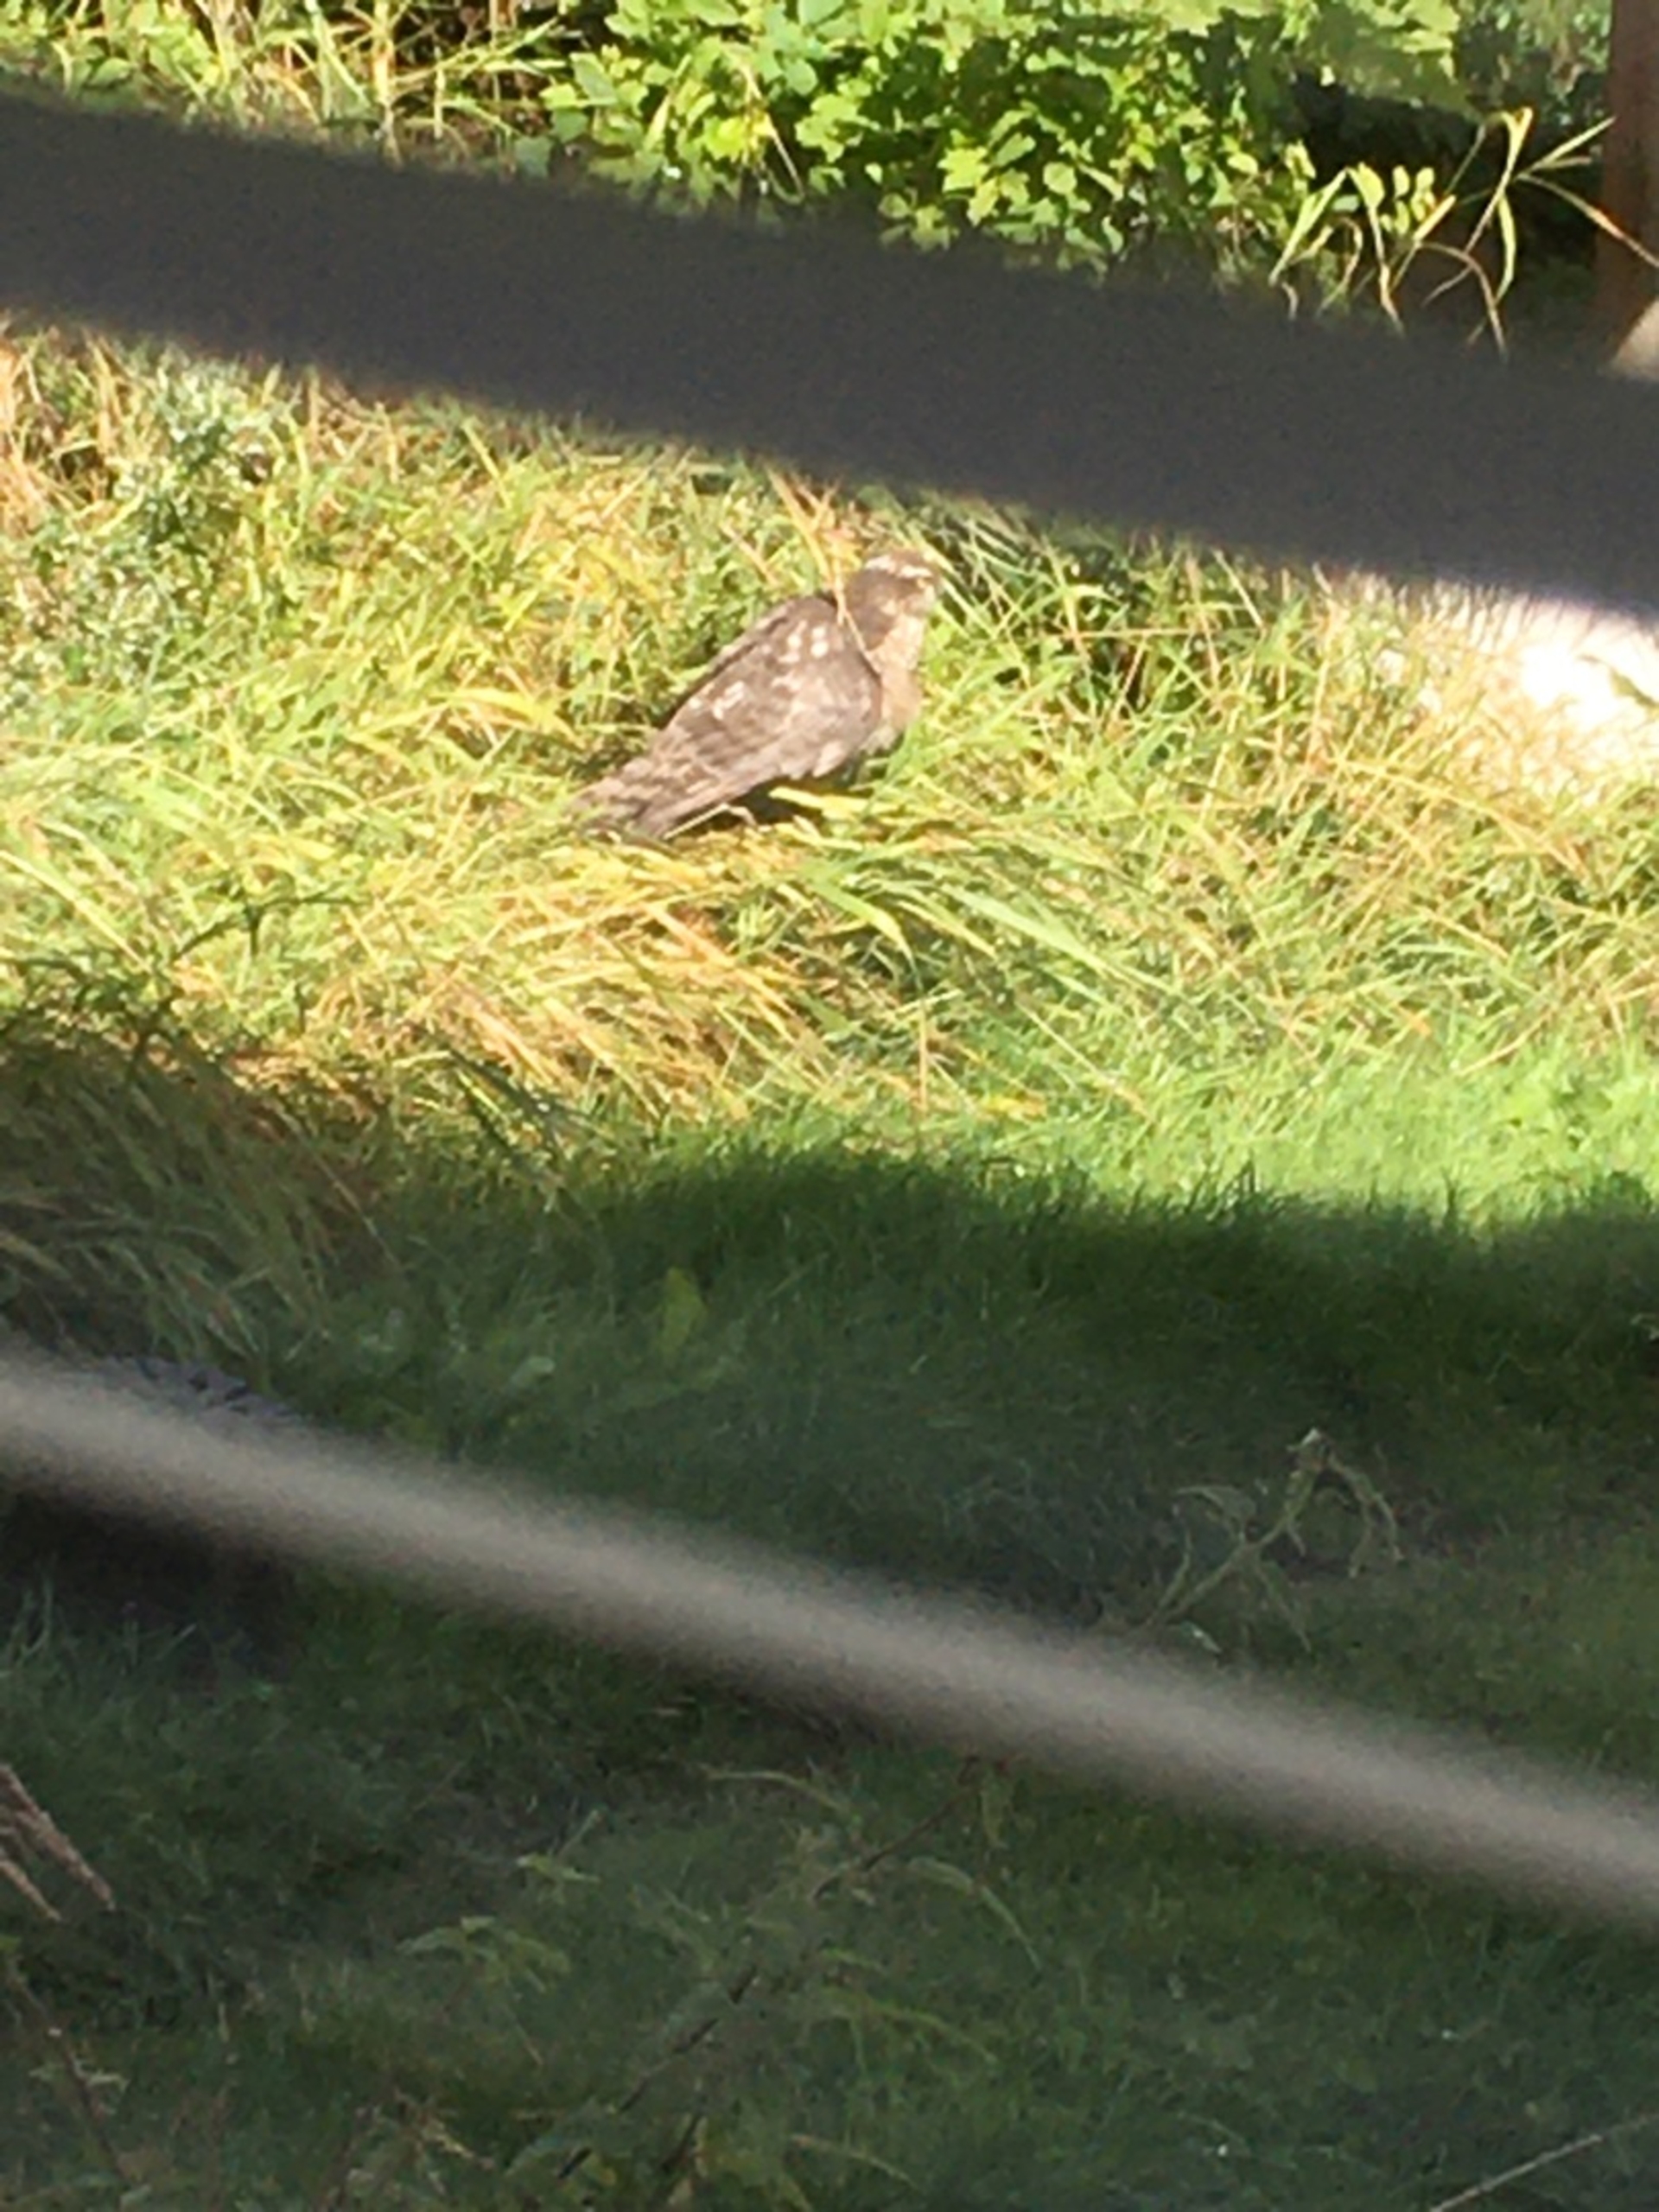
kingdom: Animalia
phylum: Chordata
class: Aves
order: Accipitriformes
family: Accipitridae
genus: Accipiter
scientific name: Accipiter nisus
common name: Spurvehøg
